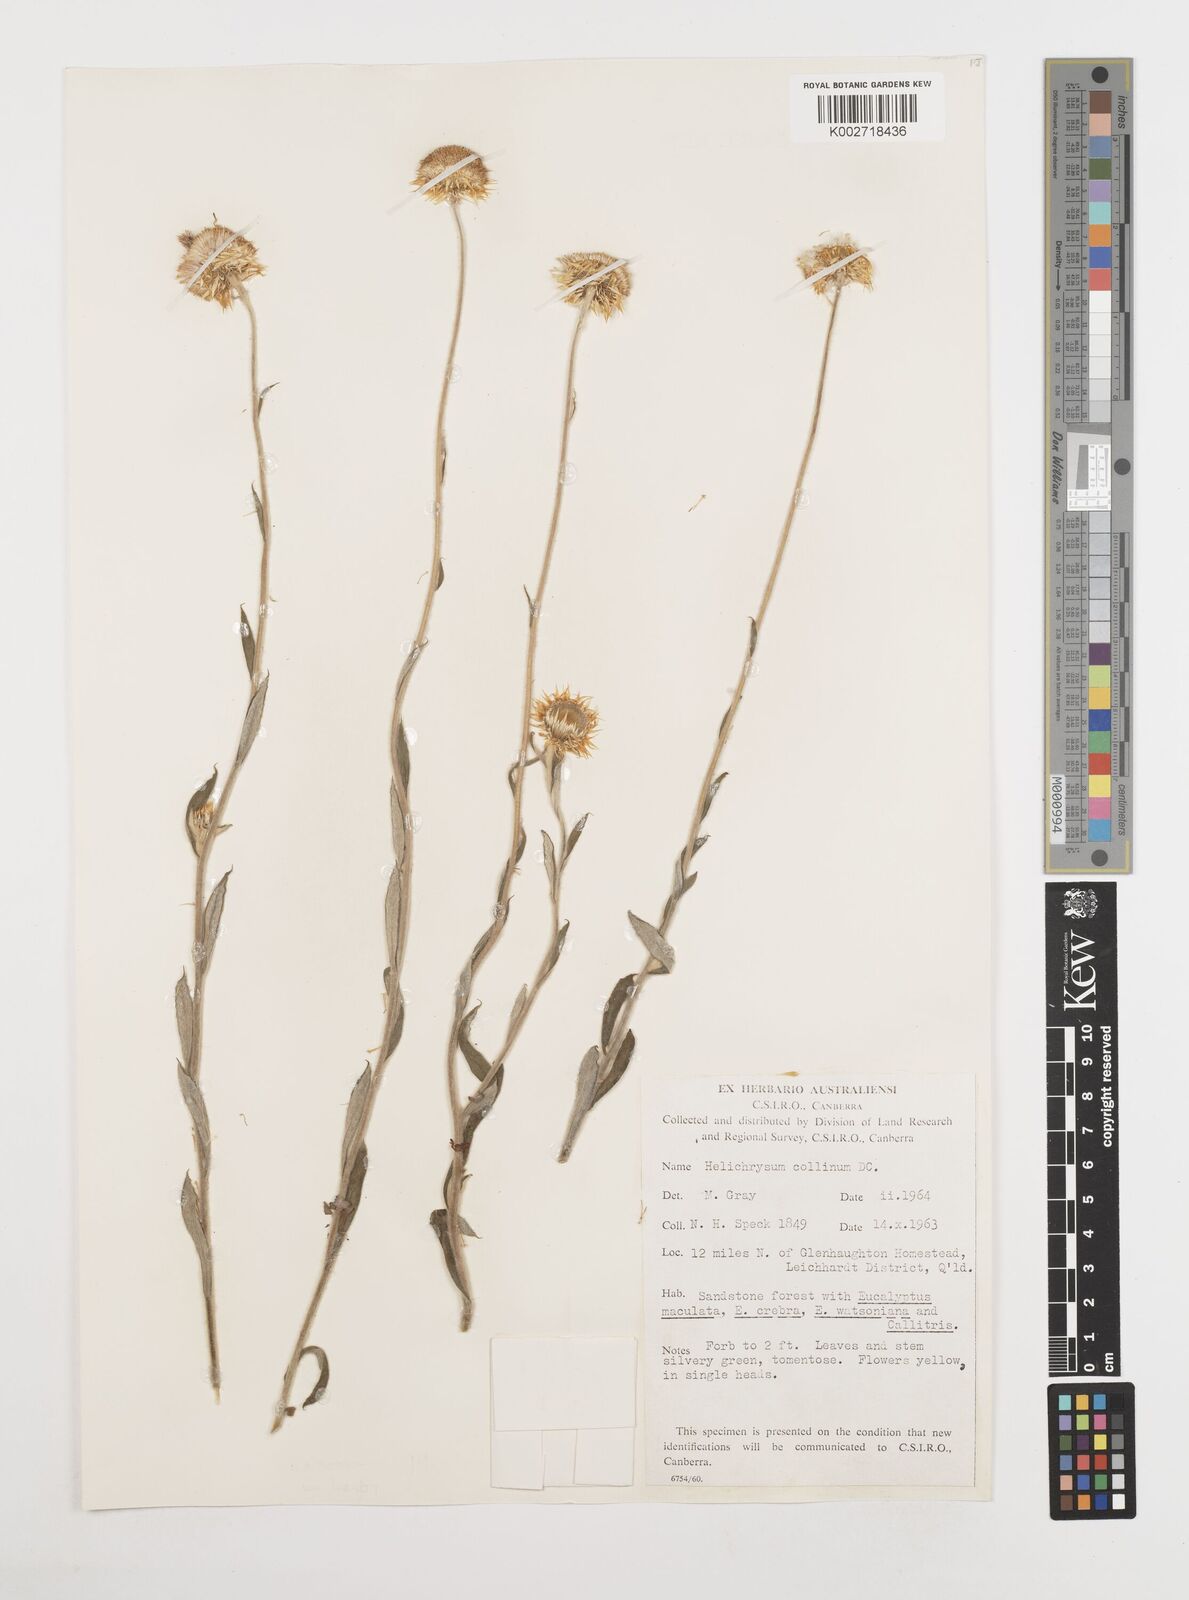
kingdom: Plantae
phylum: Tracheophyta
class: Magnoliopsida
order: Asterales
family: Asteraceae
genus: Coronidium
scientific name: Coronidium rupicola
